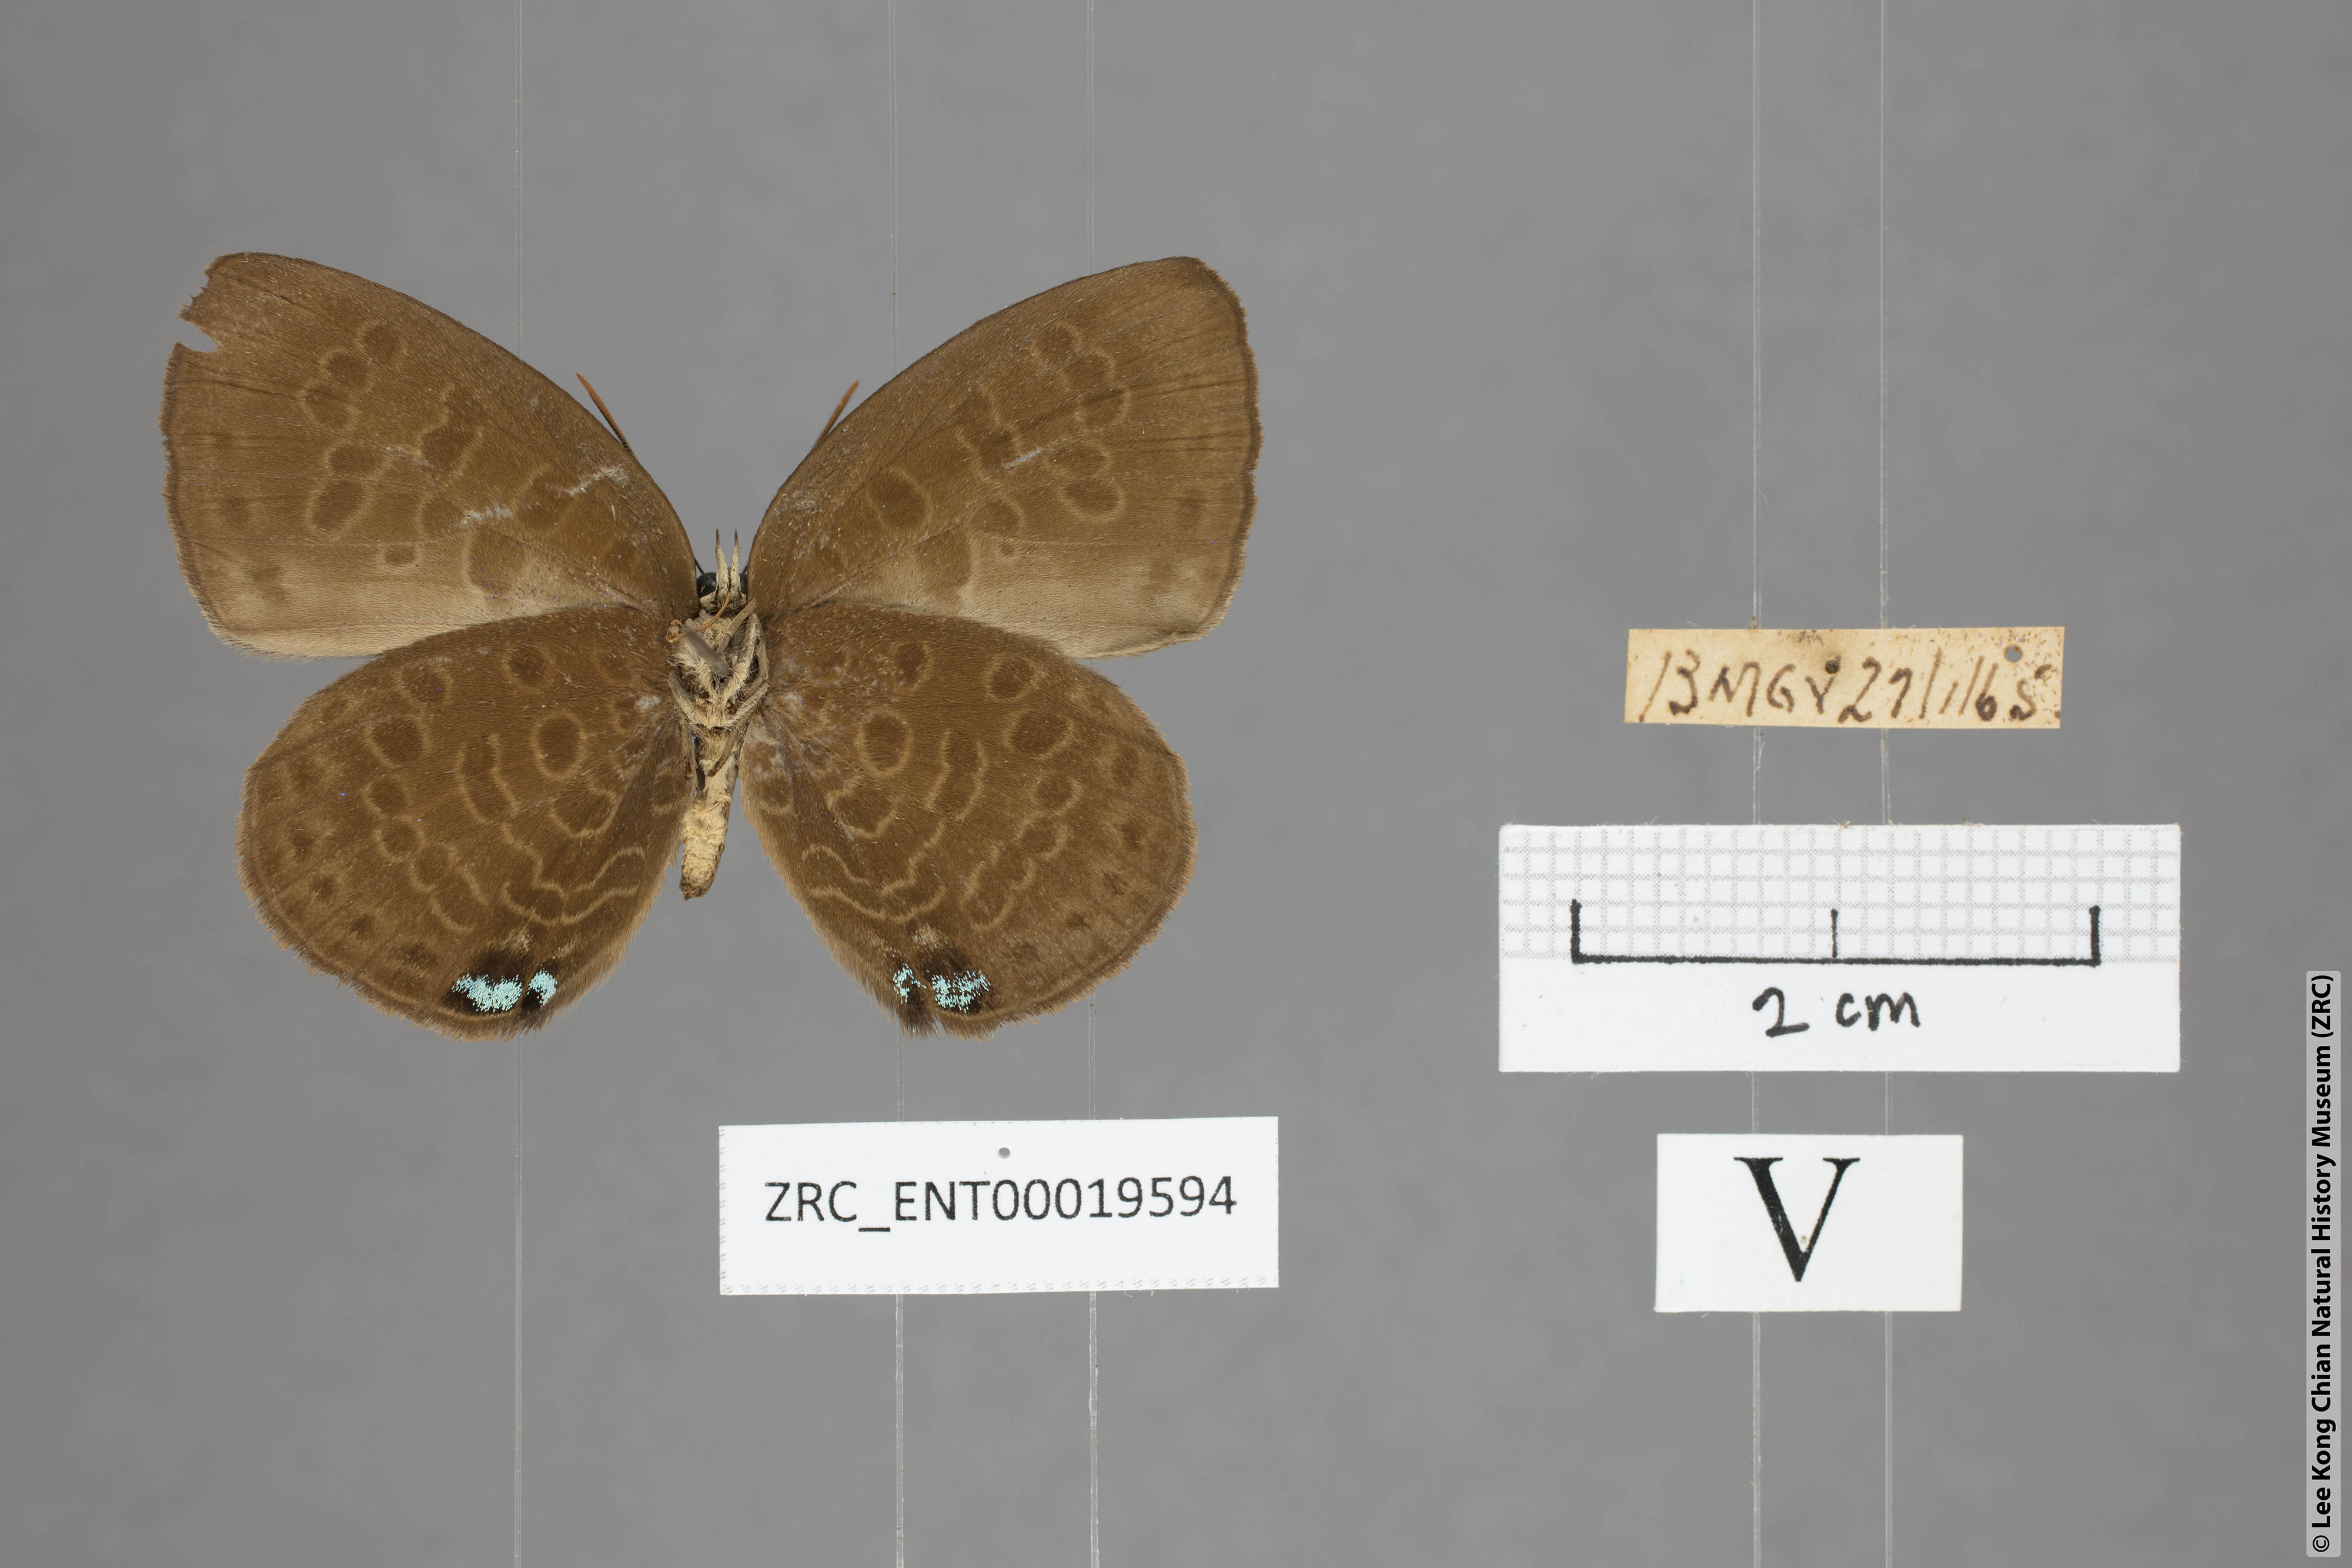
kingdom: Animalia
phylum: Arthropoda
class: Insecta
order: Lepidoptera
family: Lycaenidae
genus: Arhopala
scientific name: Arhopala kurzi
